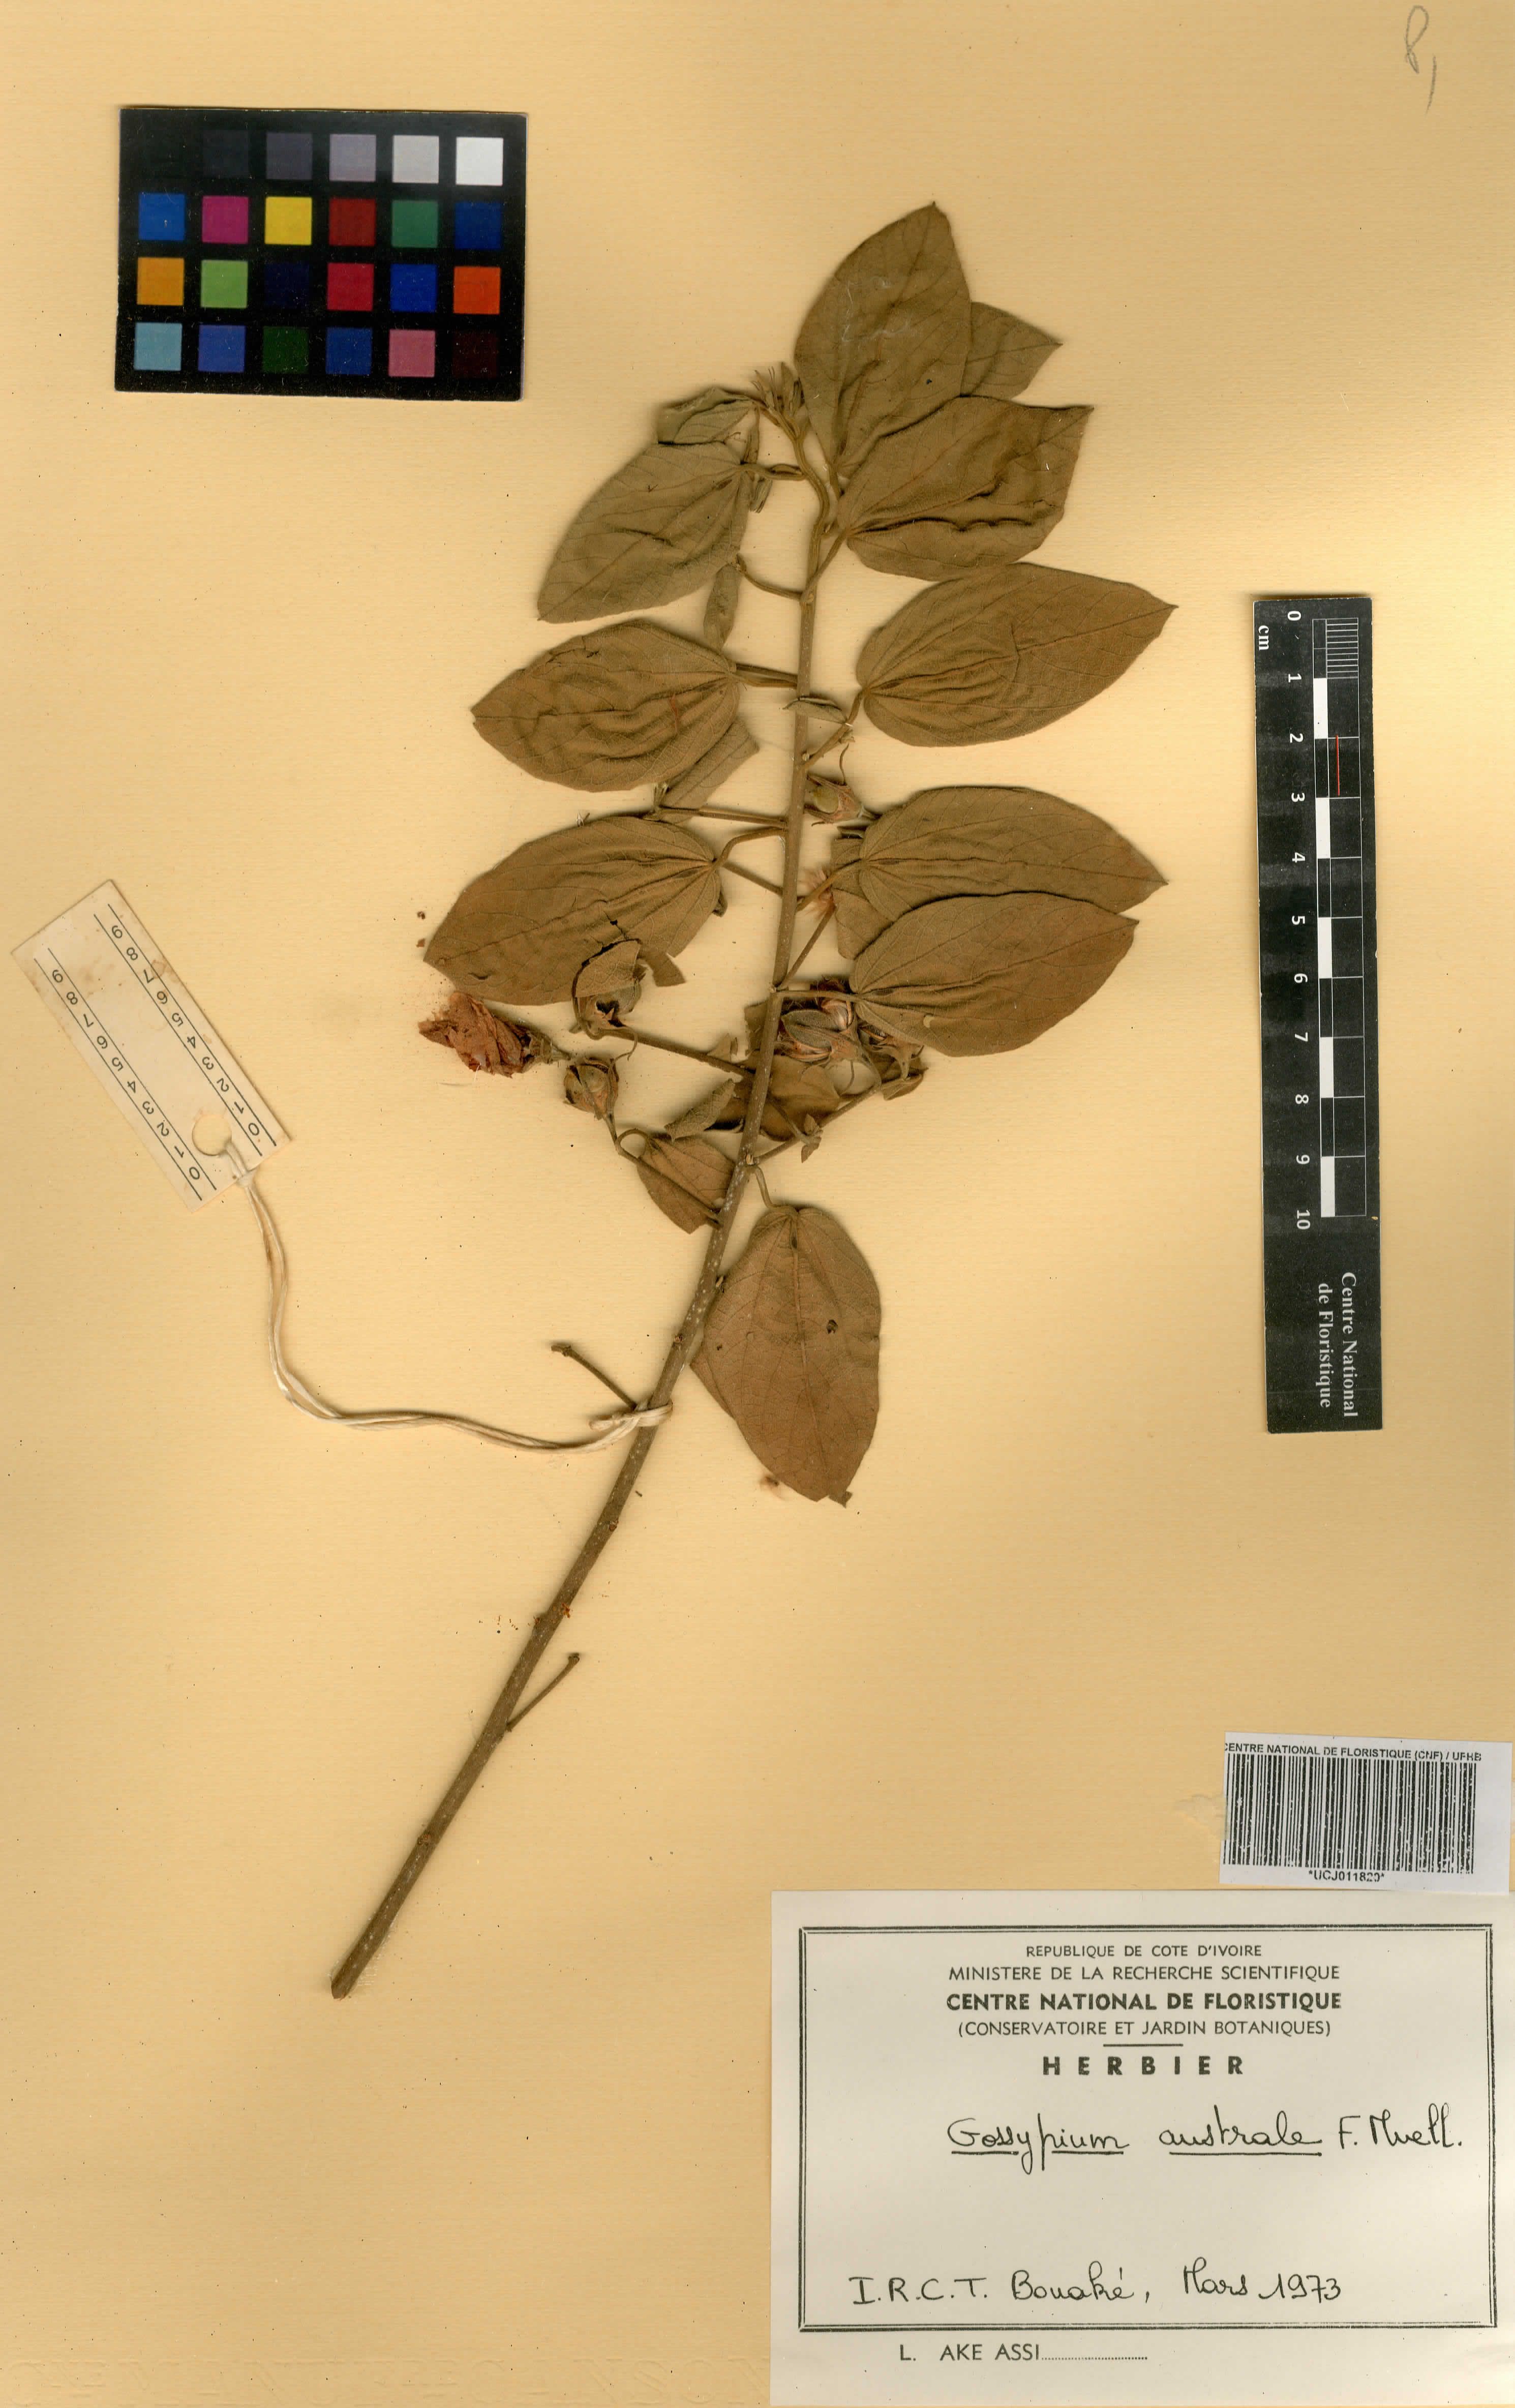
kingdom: Plantae
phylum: Tracheophyta
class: Magnoliopsida
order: Malvales
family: Malvaceae
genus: Cienfuegosia
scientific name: Cienfuegosia australis
